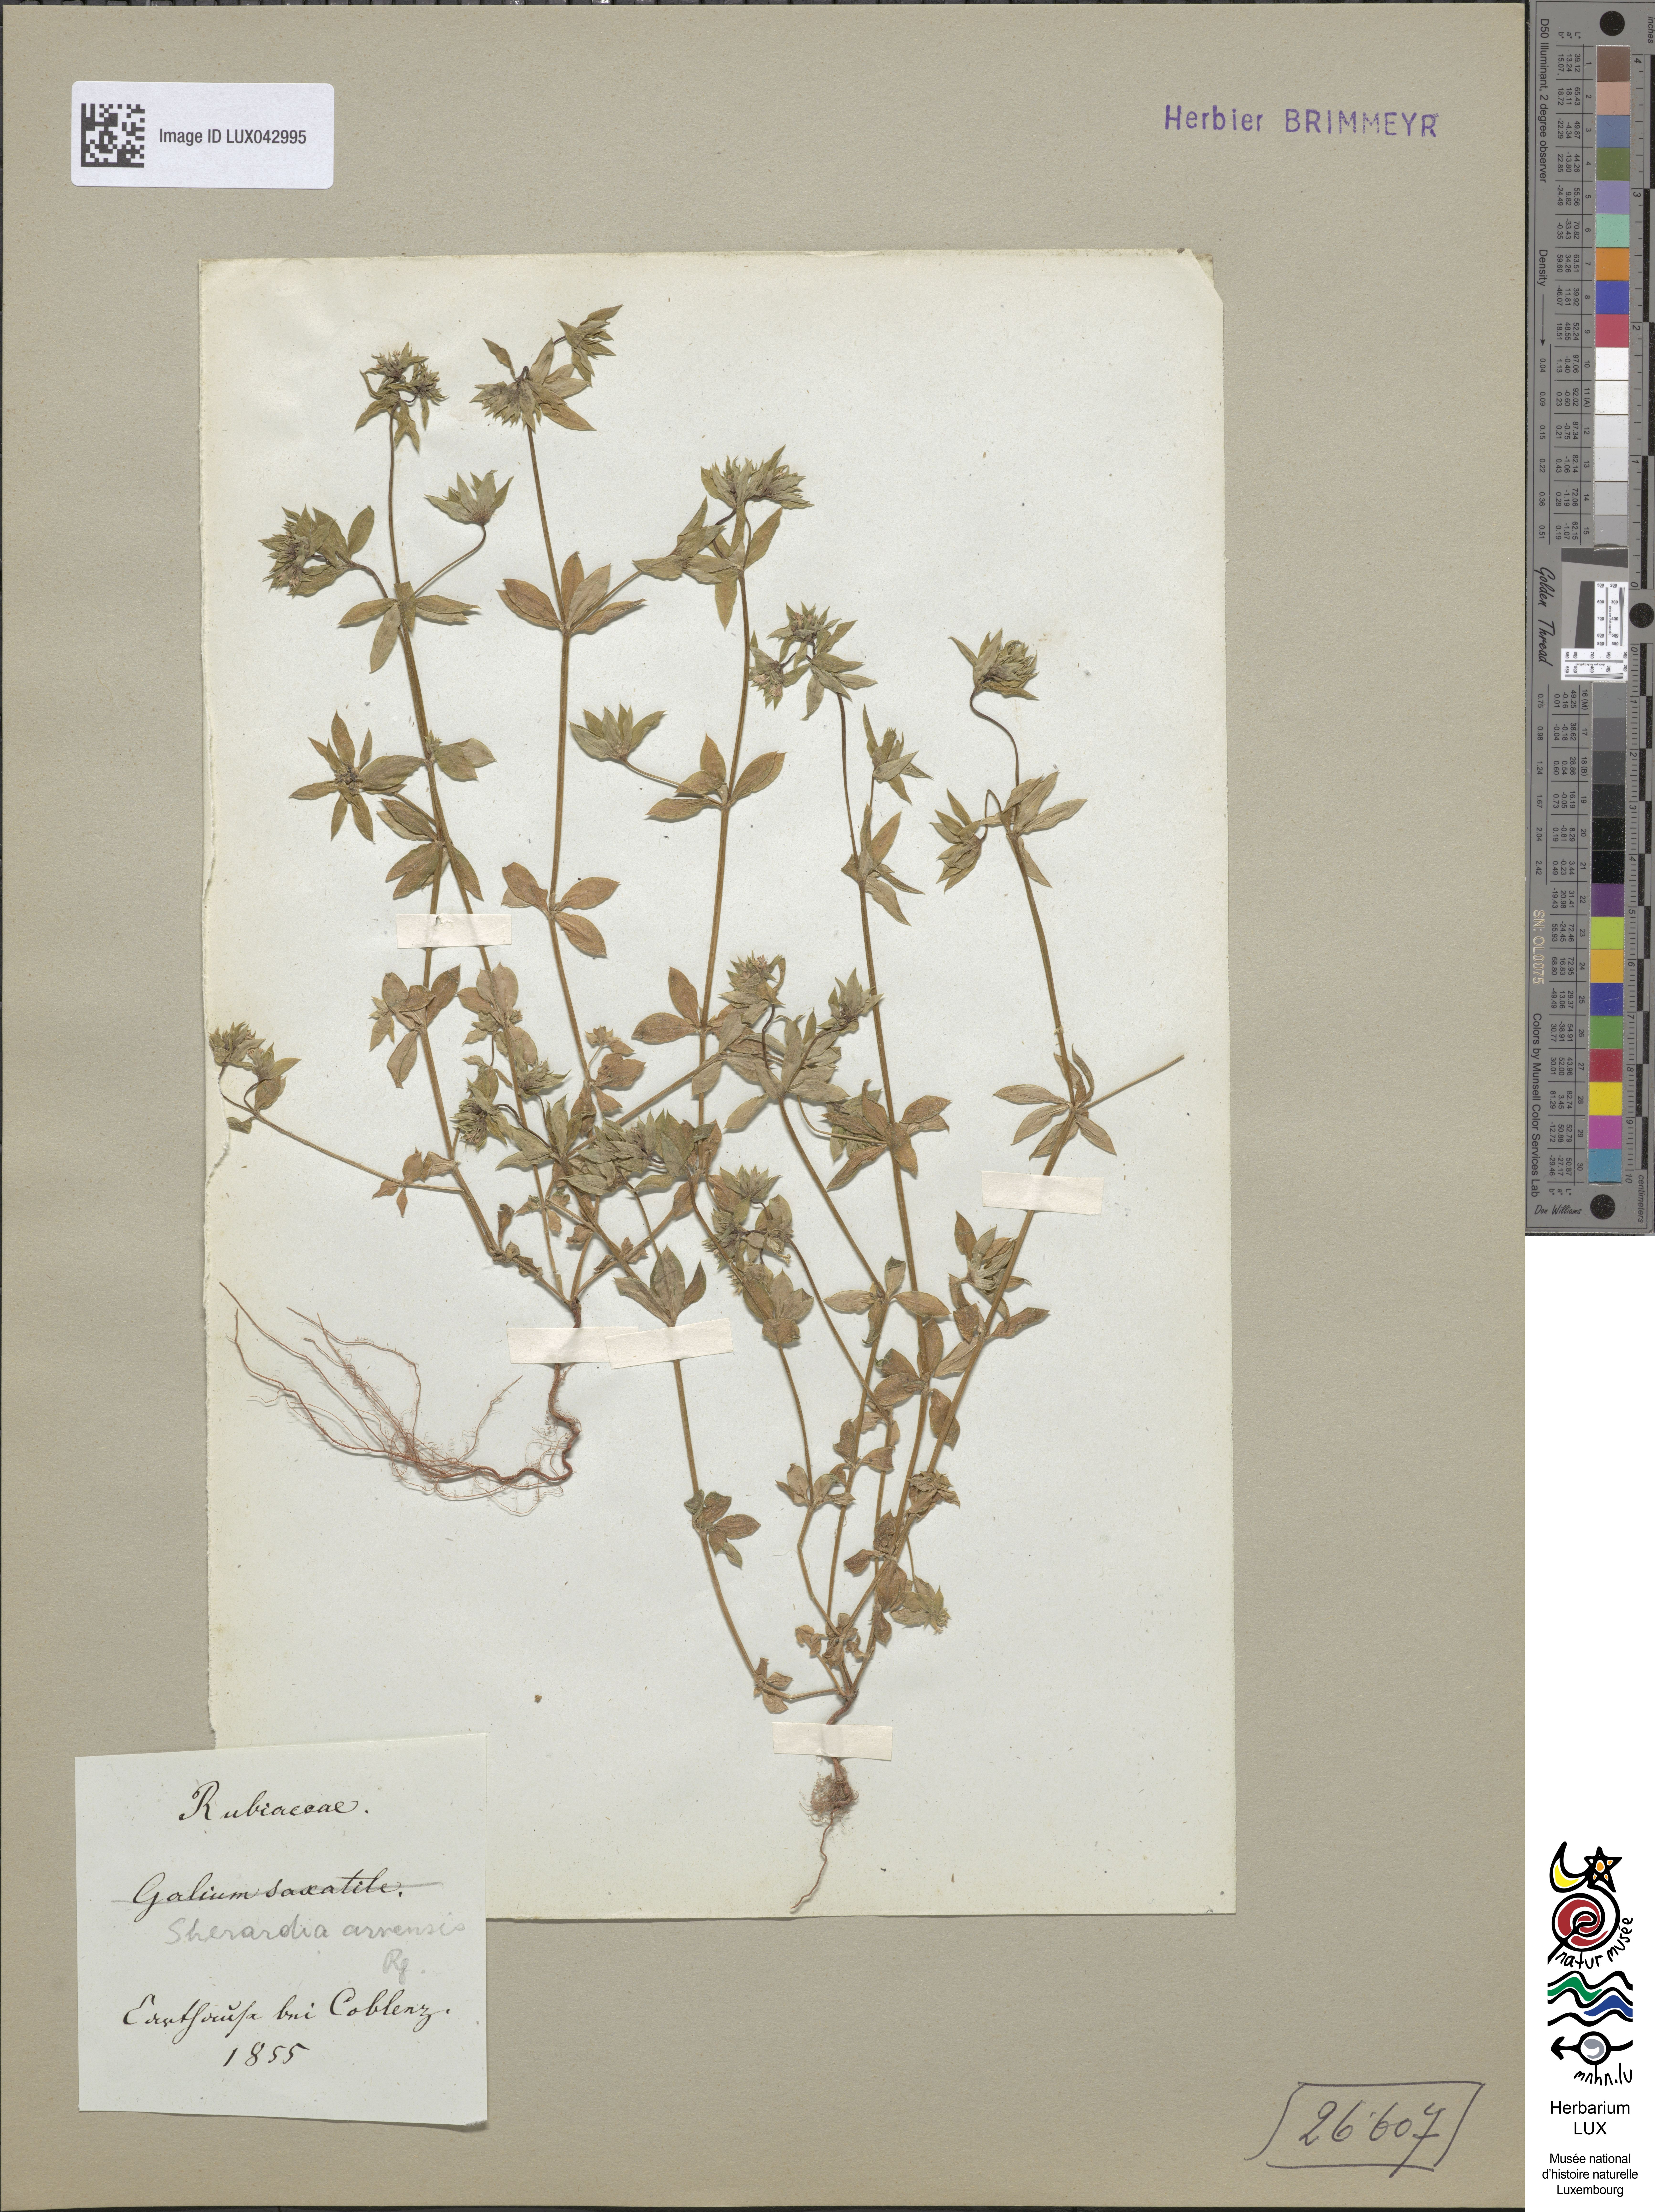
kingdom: Plantae
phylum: Tracheophyta
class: Magnoliopsida
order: Gentianales
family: Rubiaceae
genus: Sherardia
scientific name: Sherardia arvensis
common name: Field madder
